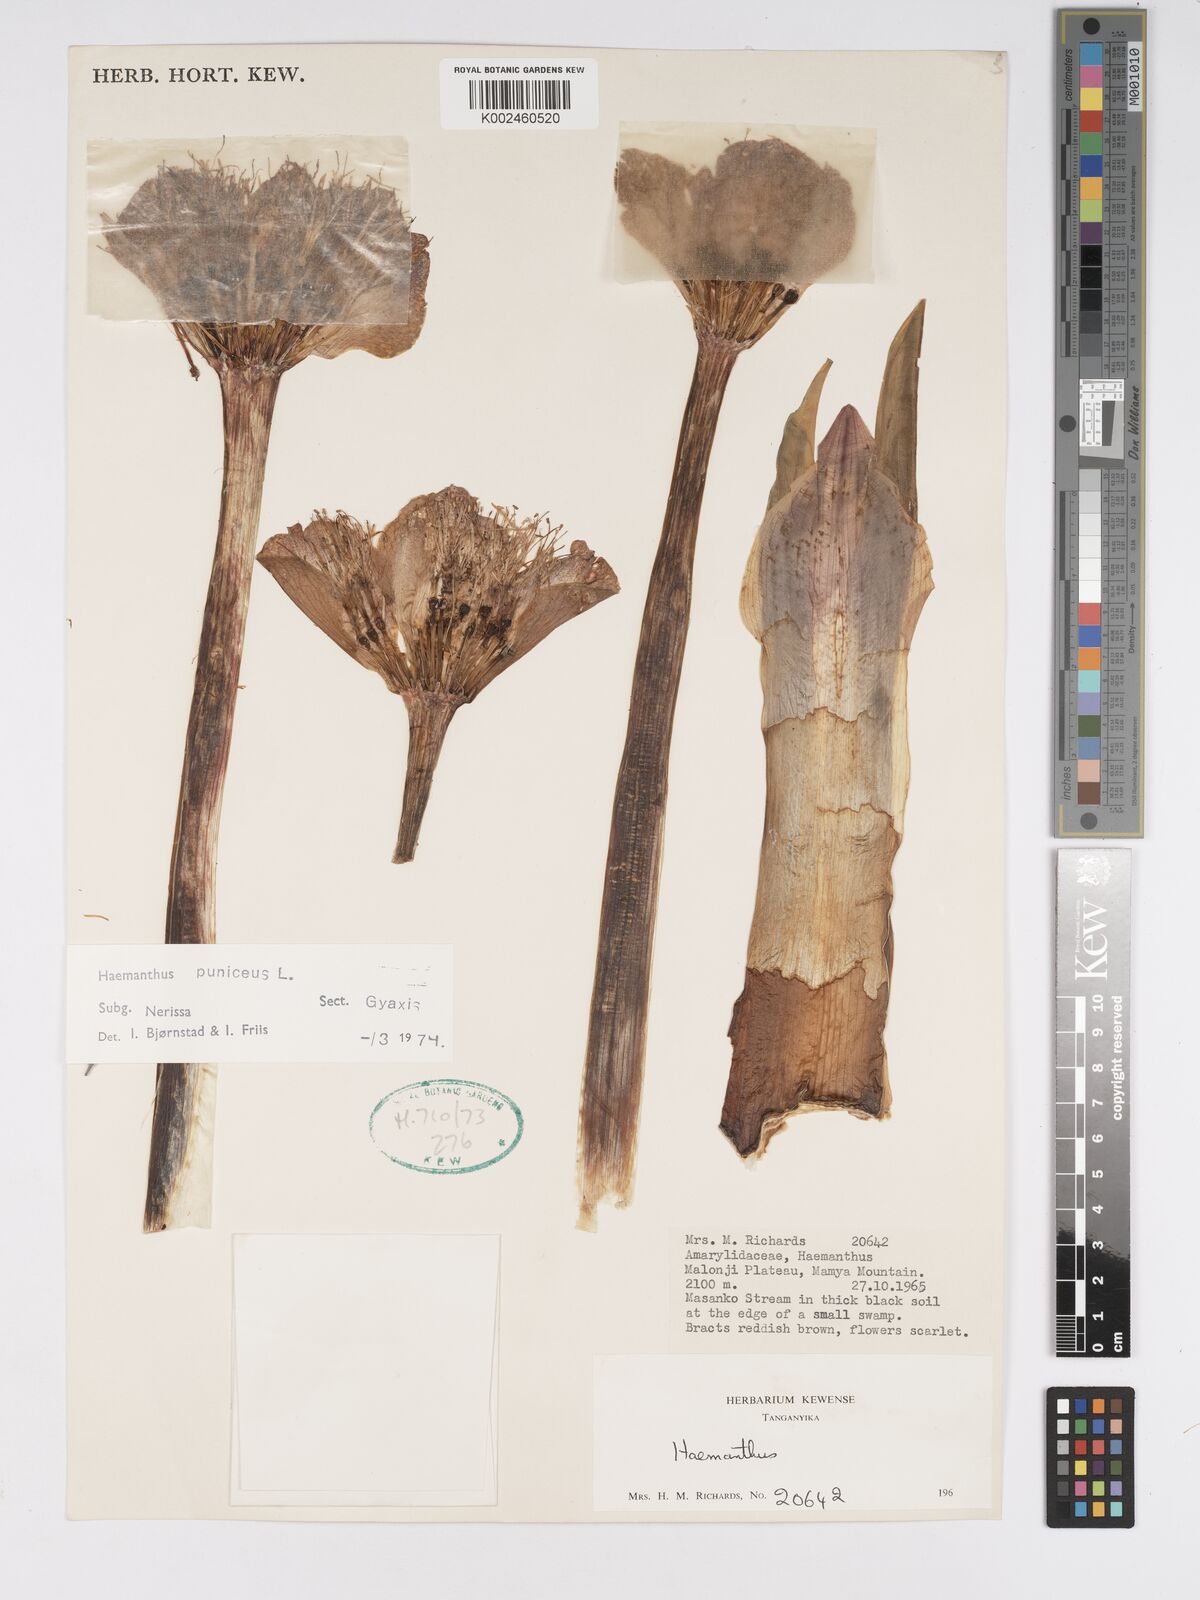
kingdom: Plantae
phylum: Tracheophyta
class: Liliopsida
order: Asparagales
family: Amaryllidaceae
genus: Scadoxus
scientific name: Scadoxus puniceus
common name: Royal-paintbrush
